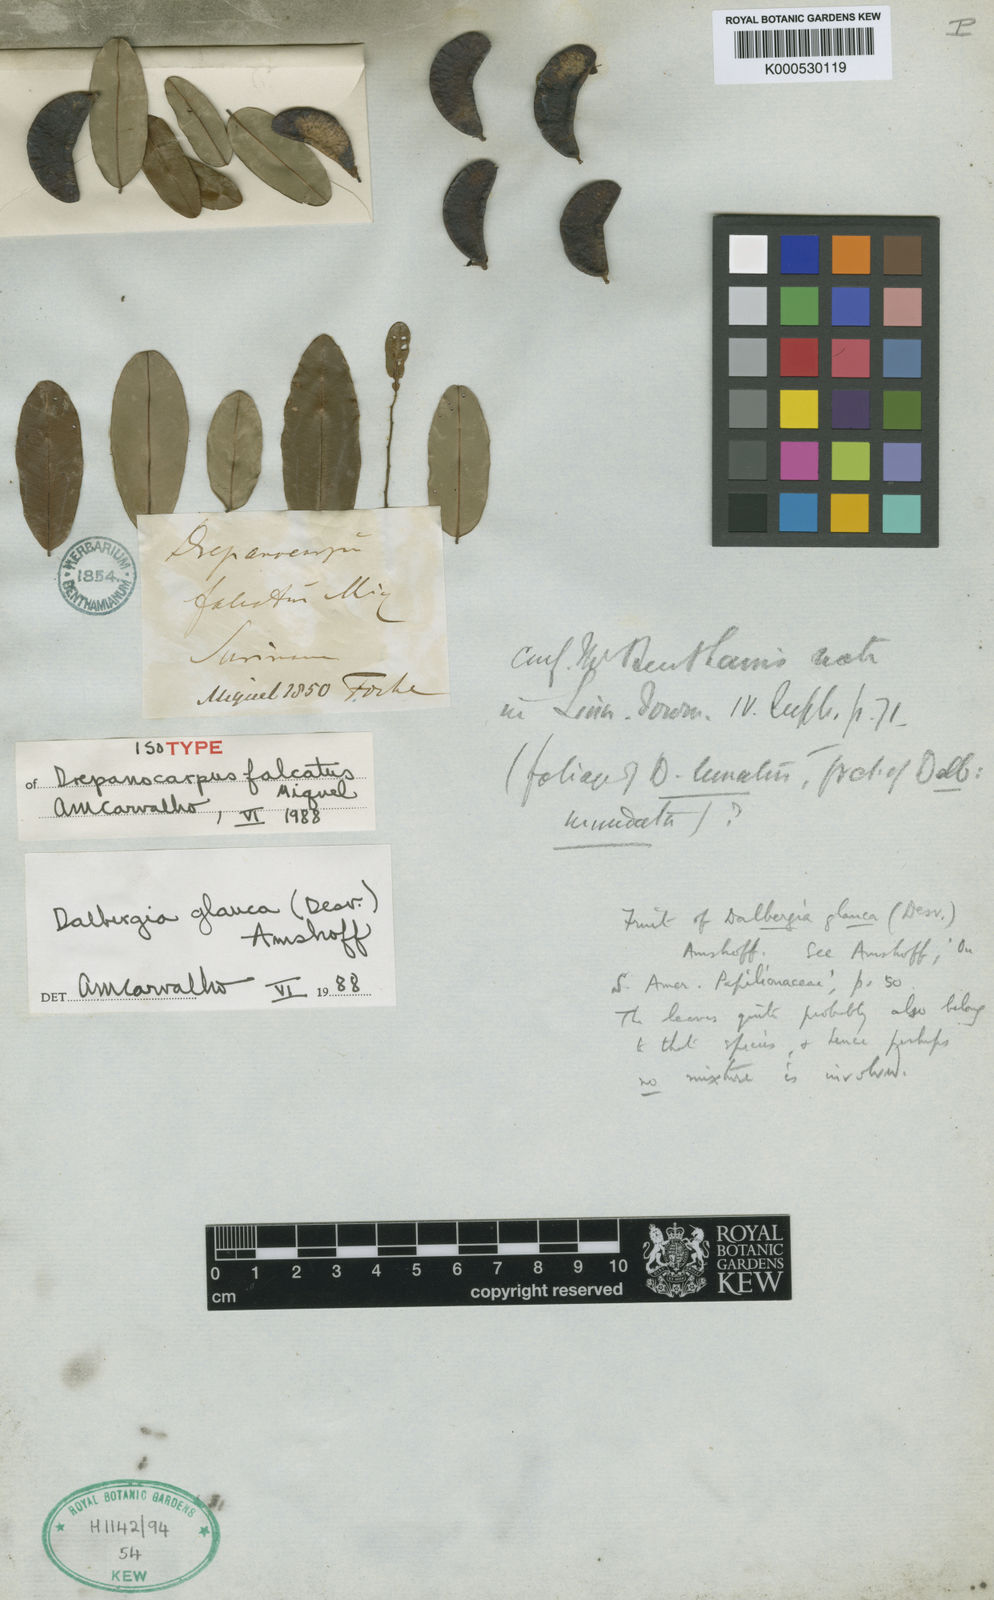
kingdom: Plantae
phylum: Tracheophyta
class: Magnoliopsida
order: Fabales
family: Fabaceae
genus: Dalbergia
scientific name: Dalbergia atropurpurea
